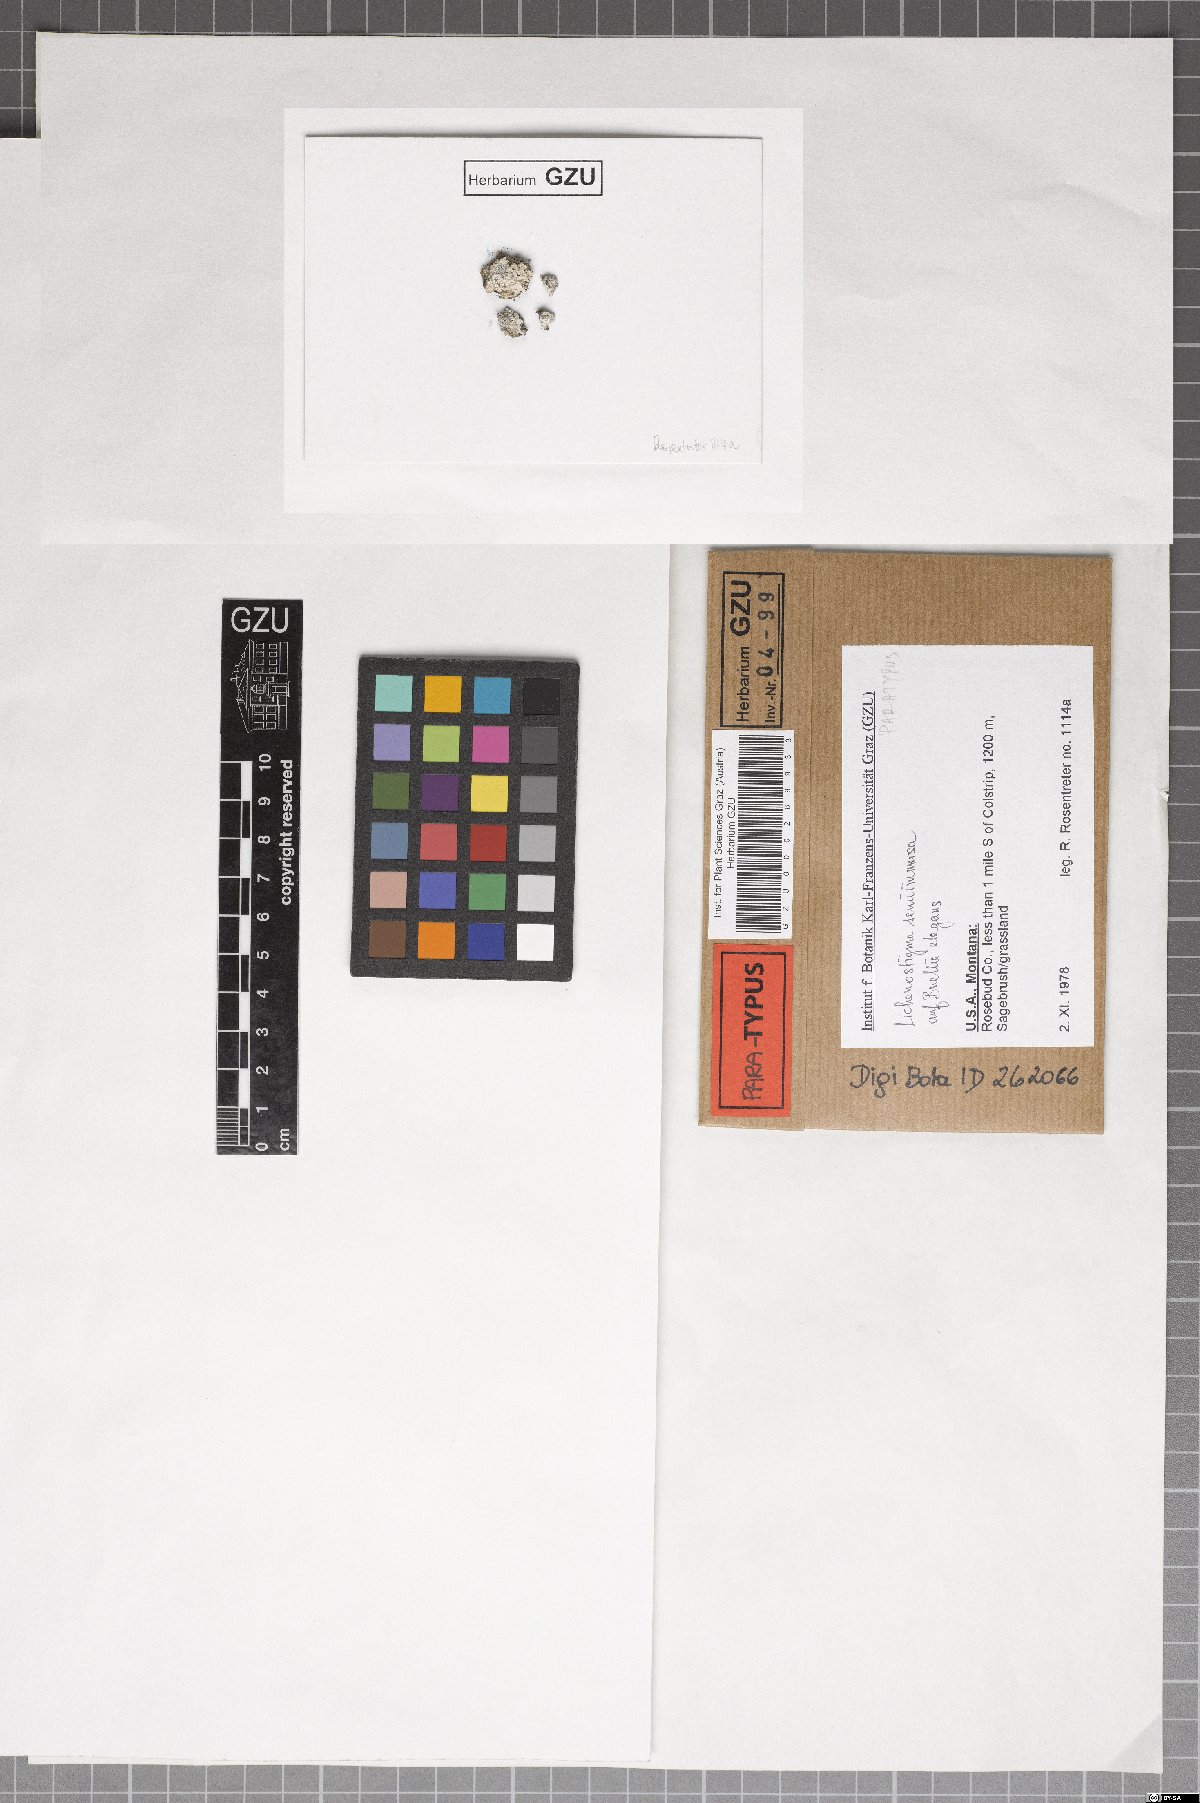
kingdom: Fungi
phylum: Ascomycota
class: Dothideomycetes
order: Lichenotheliales
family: Lichenotheliaceae
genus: Lichenostigma
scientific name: Lichenostigma semi-immersum
